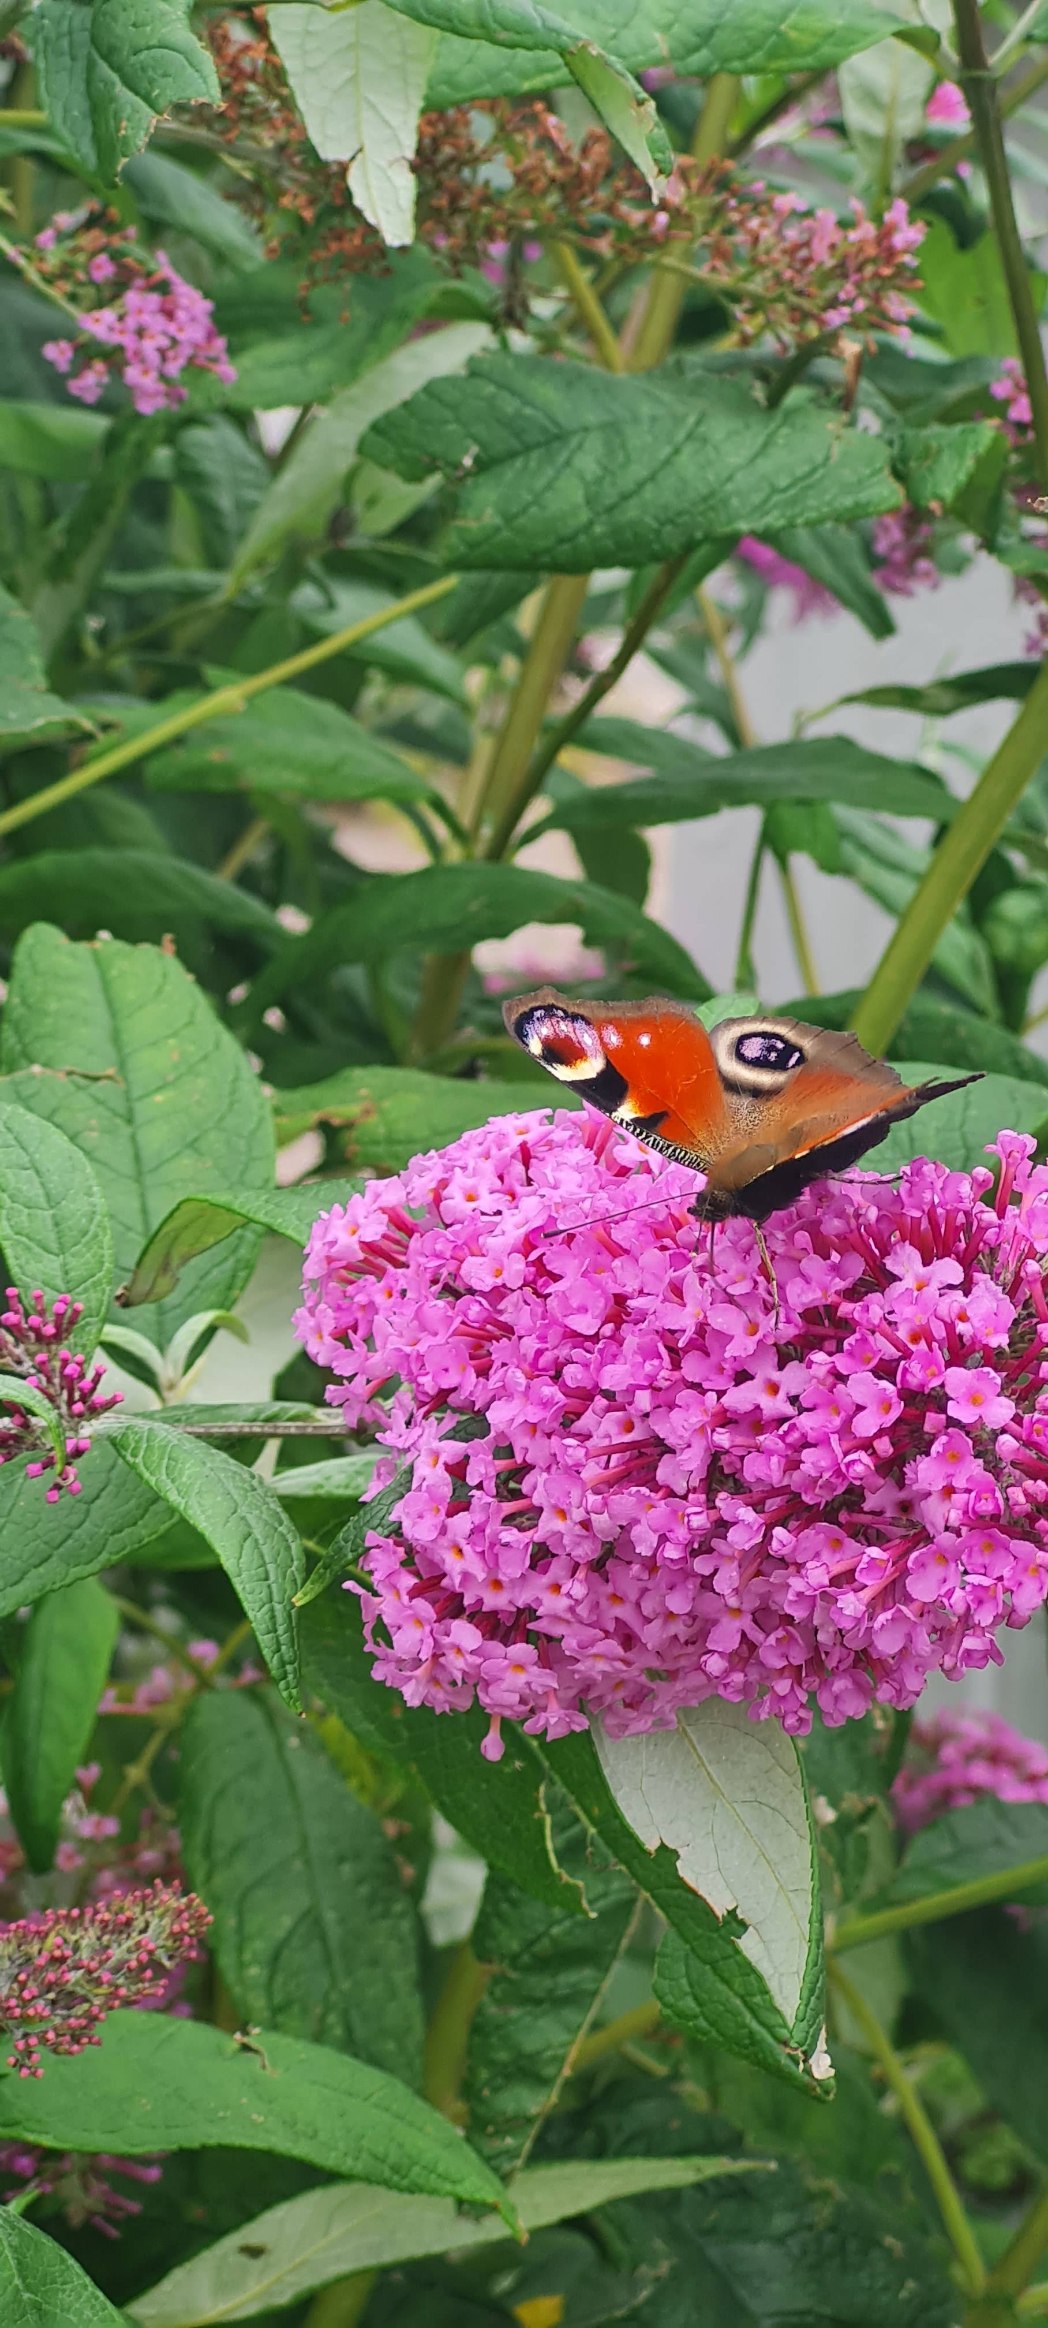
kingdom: Animalia
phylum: Arthropoda
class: Insecta
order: Lepidoptera
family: Nymphalidae
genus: Aglais
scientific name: Aglais io
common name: Dagpåfugleøje
